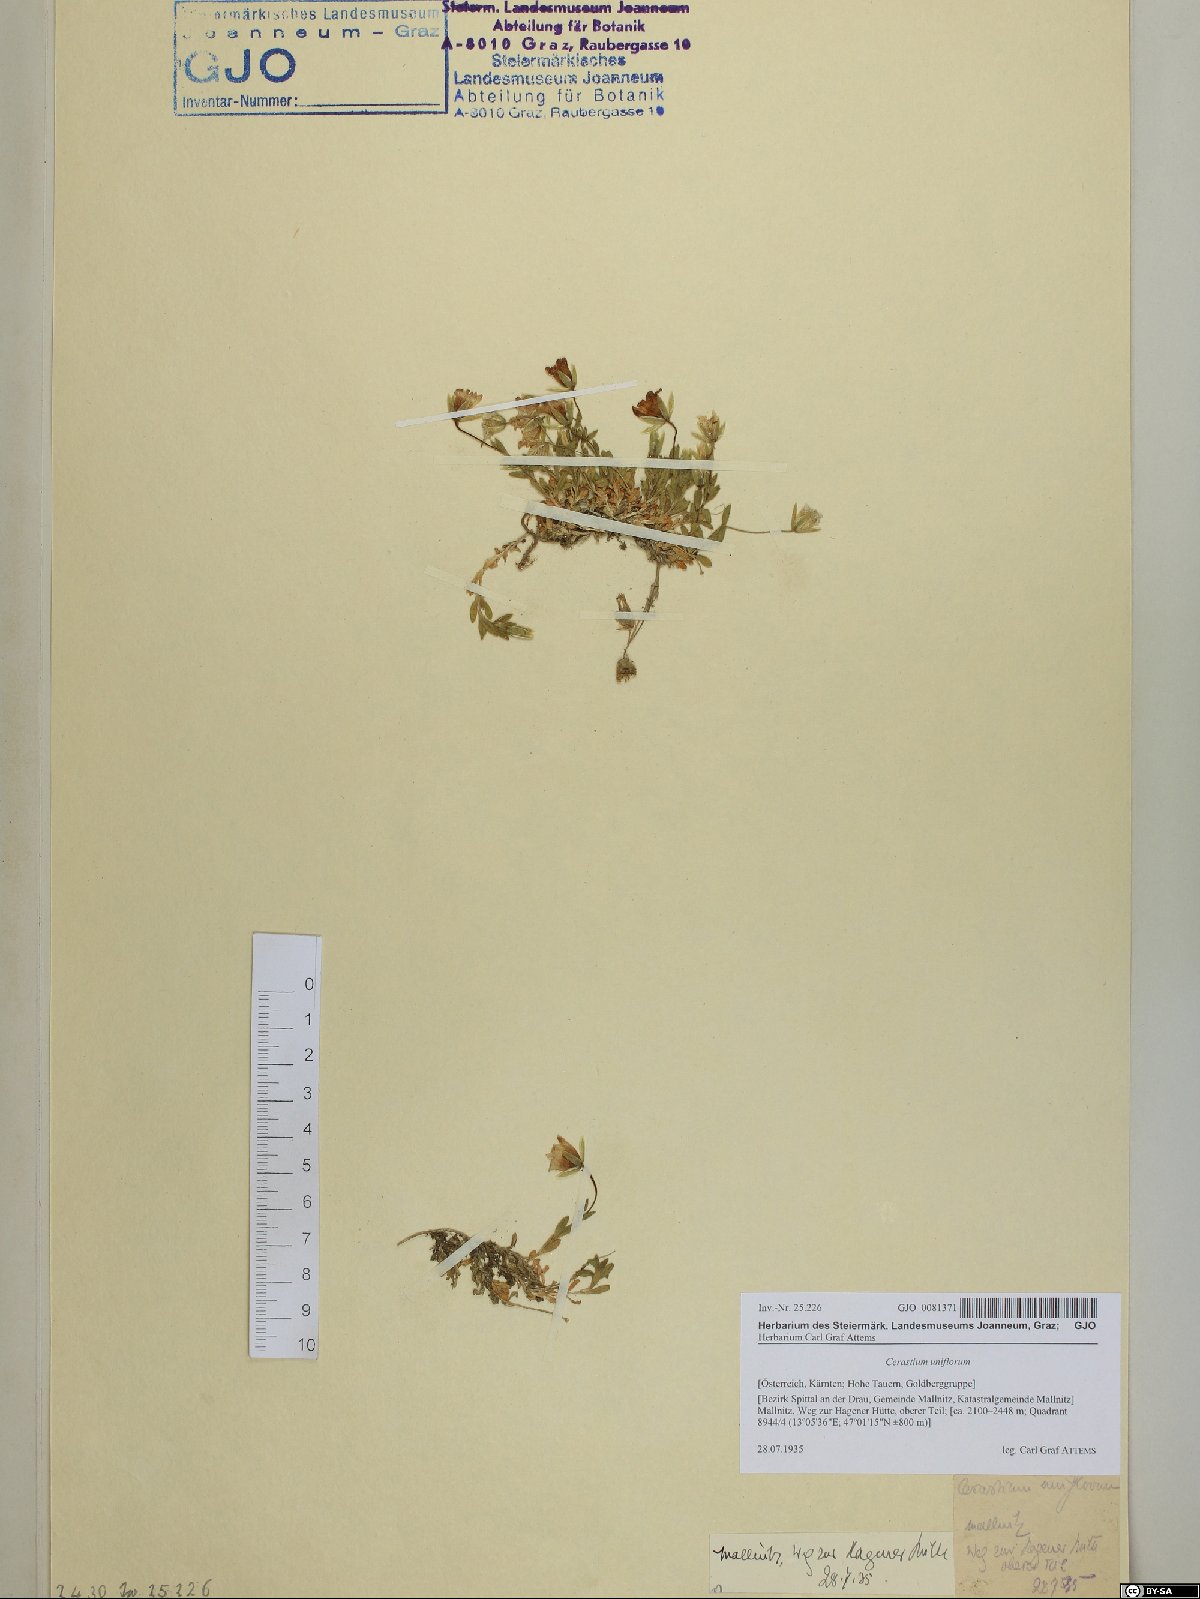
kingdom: Plantae
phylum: Tracheophyta
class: Magnoliopsida
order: Caryophyllales
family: Caryophyllaceae
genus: Cerastium
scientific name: Cerastium uniflorum
